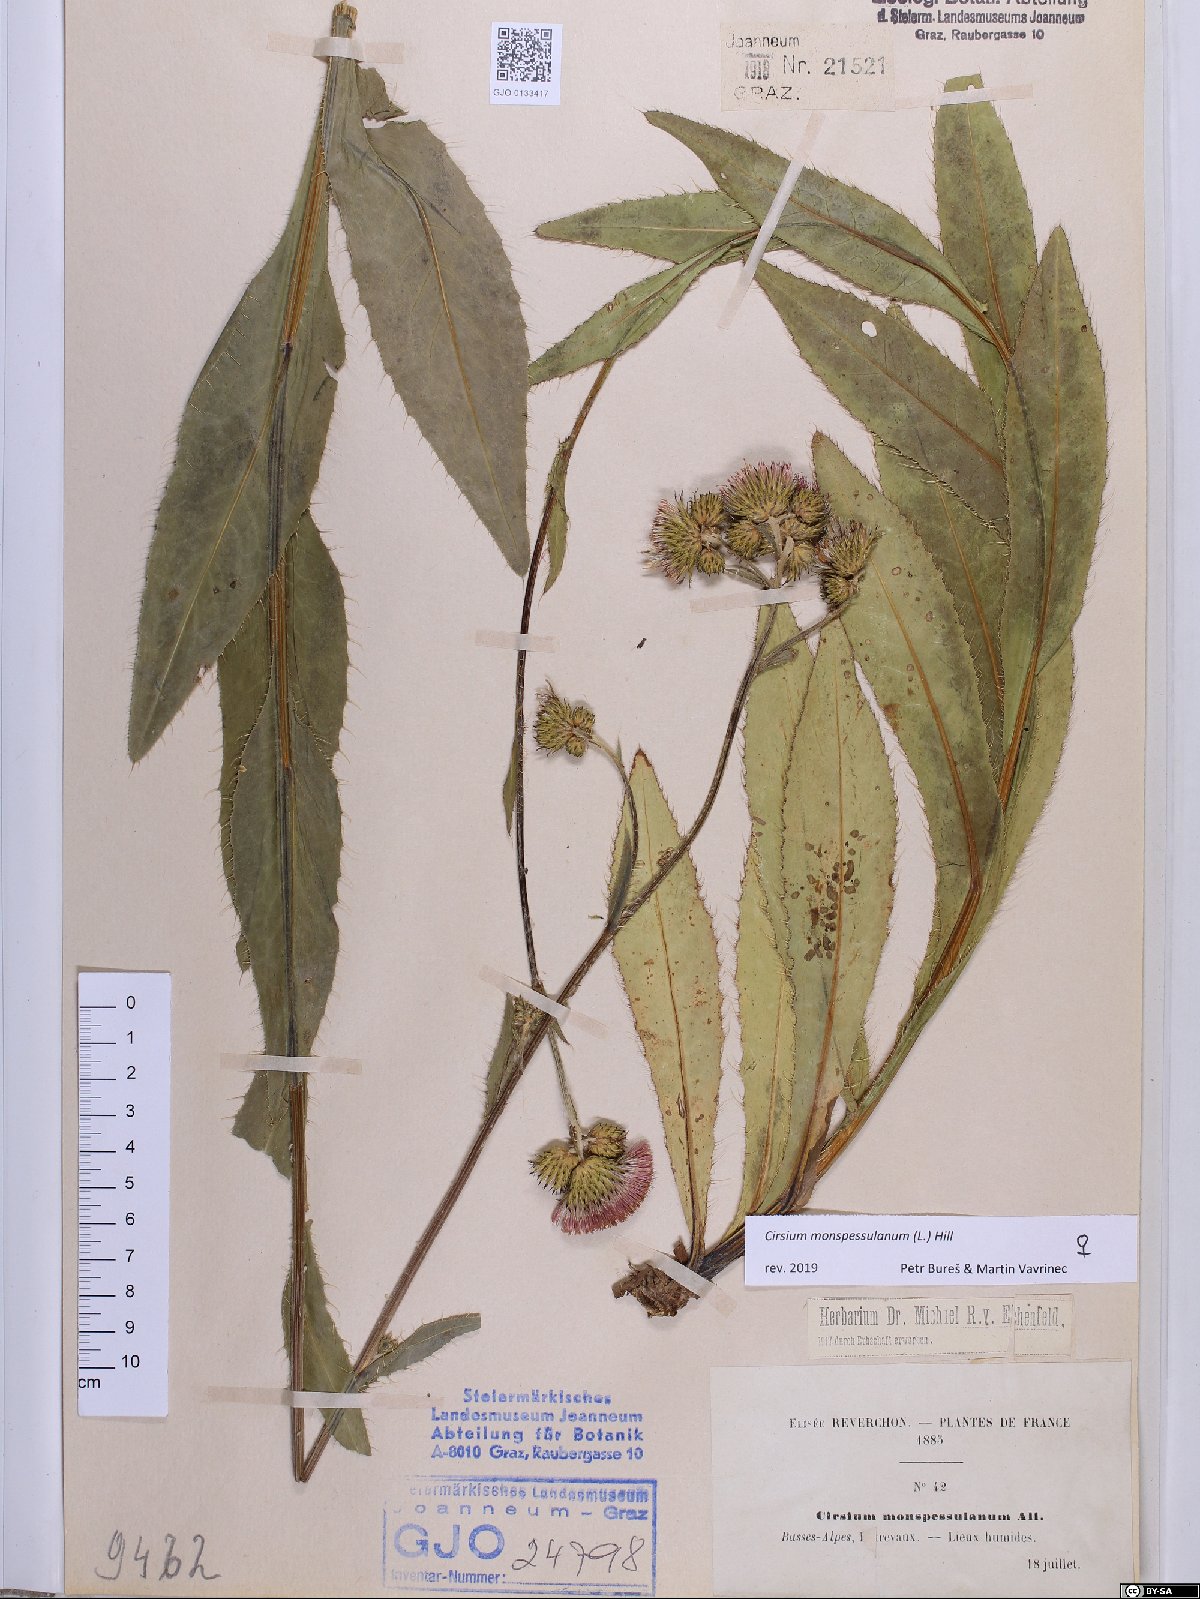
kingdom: Plantae
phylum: Tracheophyta
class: Magnoliopsida
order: Asterales
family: Asteraceae
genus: Cirsium
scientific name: Cirsium monspessulanum
